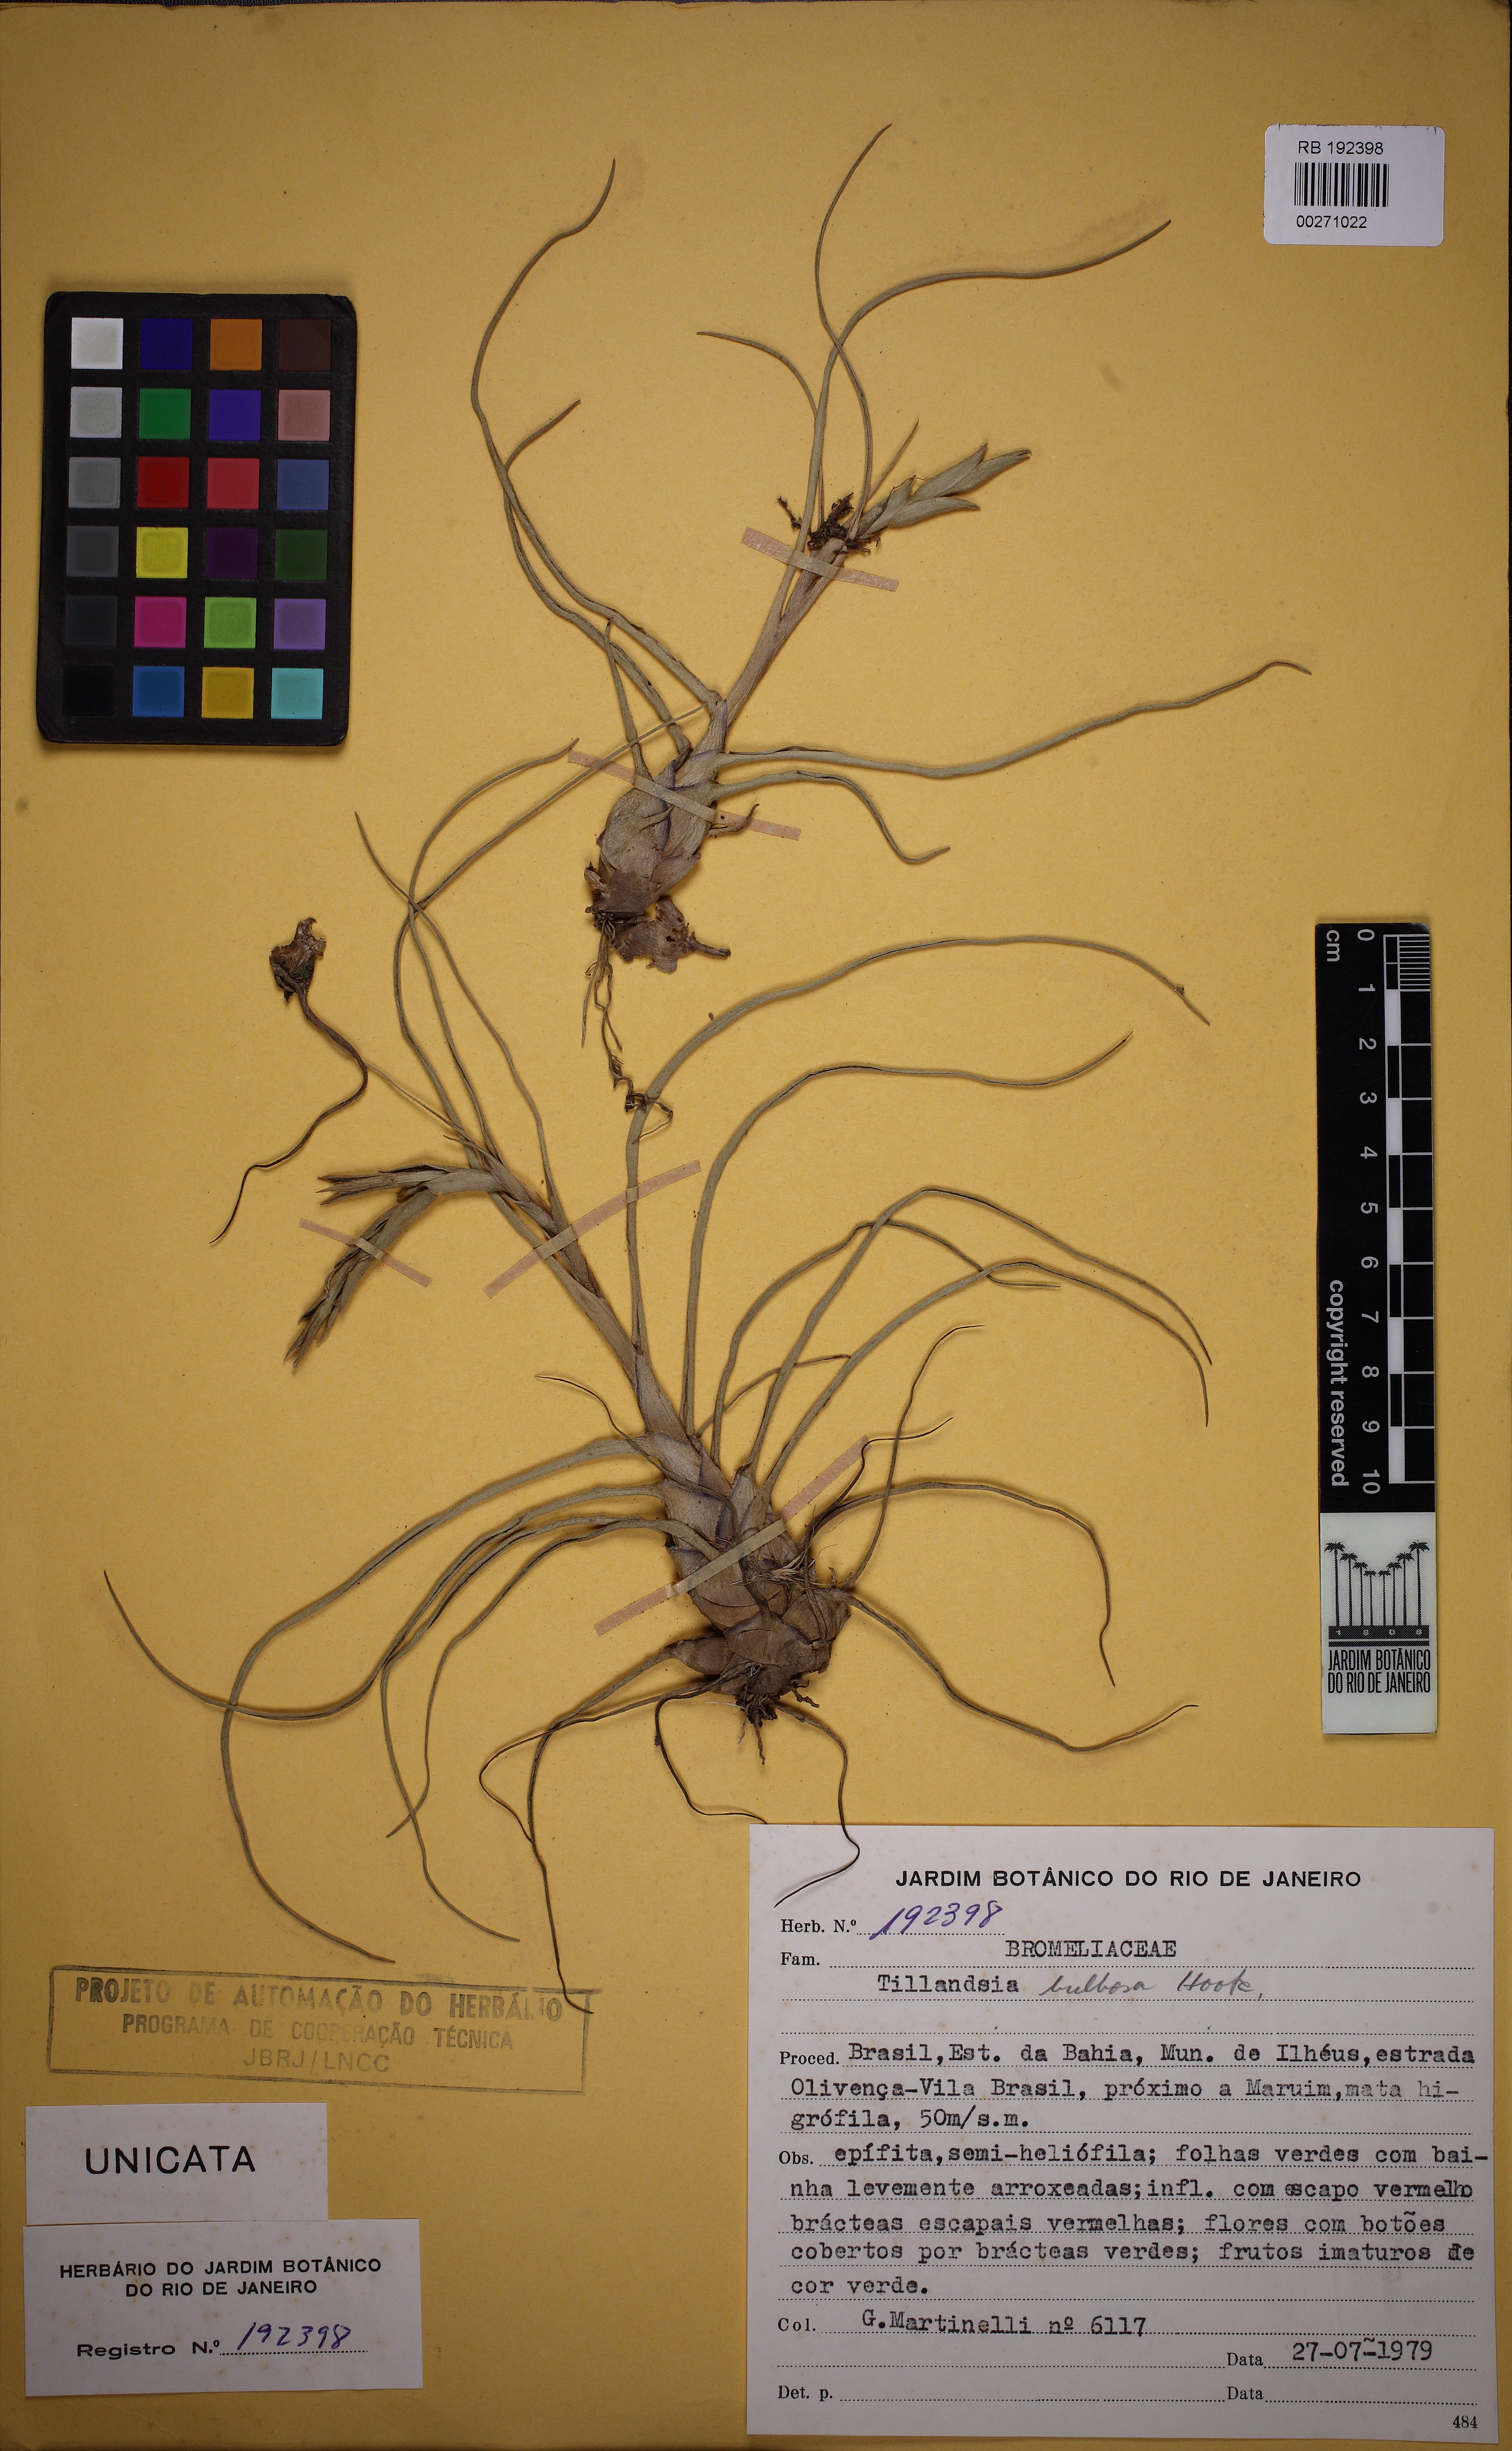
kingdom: Plantae
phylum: Tracheophyta
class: Liliopsida
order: Poales
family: Bromeliaceae
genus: Tillandsia
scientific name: Tillandsia bulbosa
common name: Bulbous airplant
